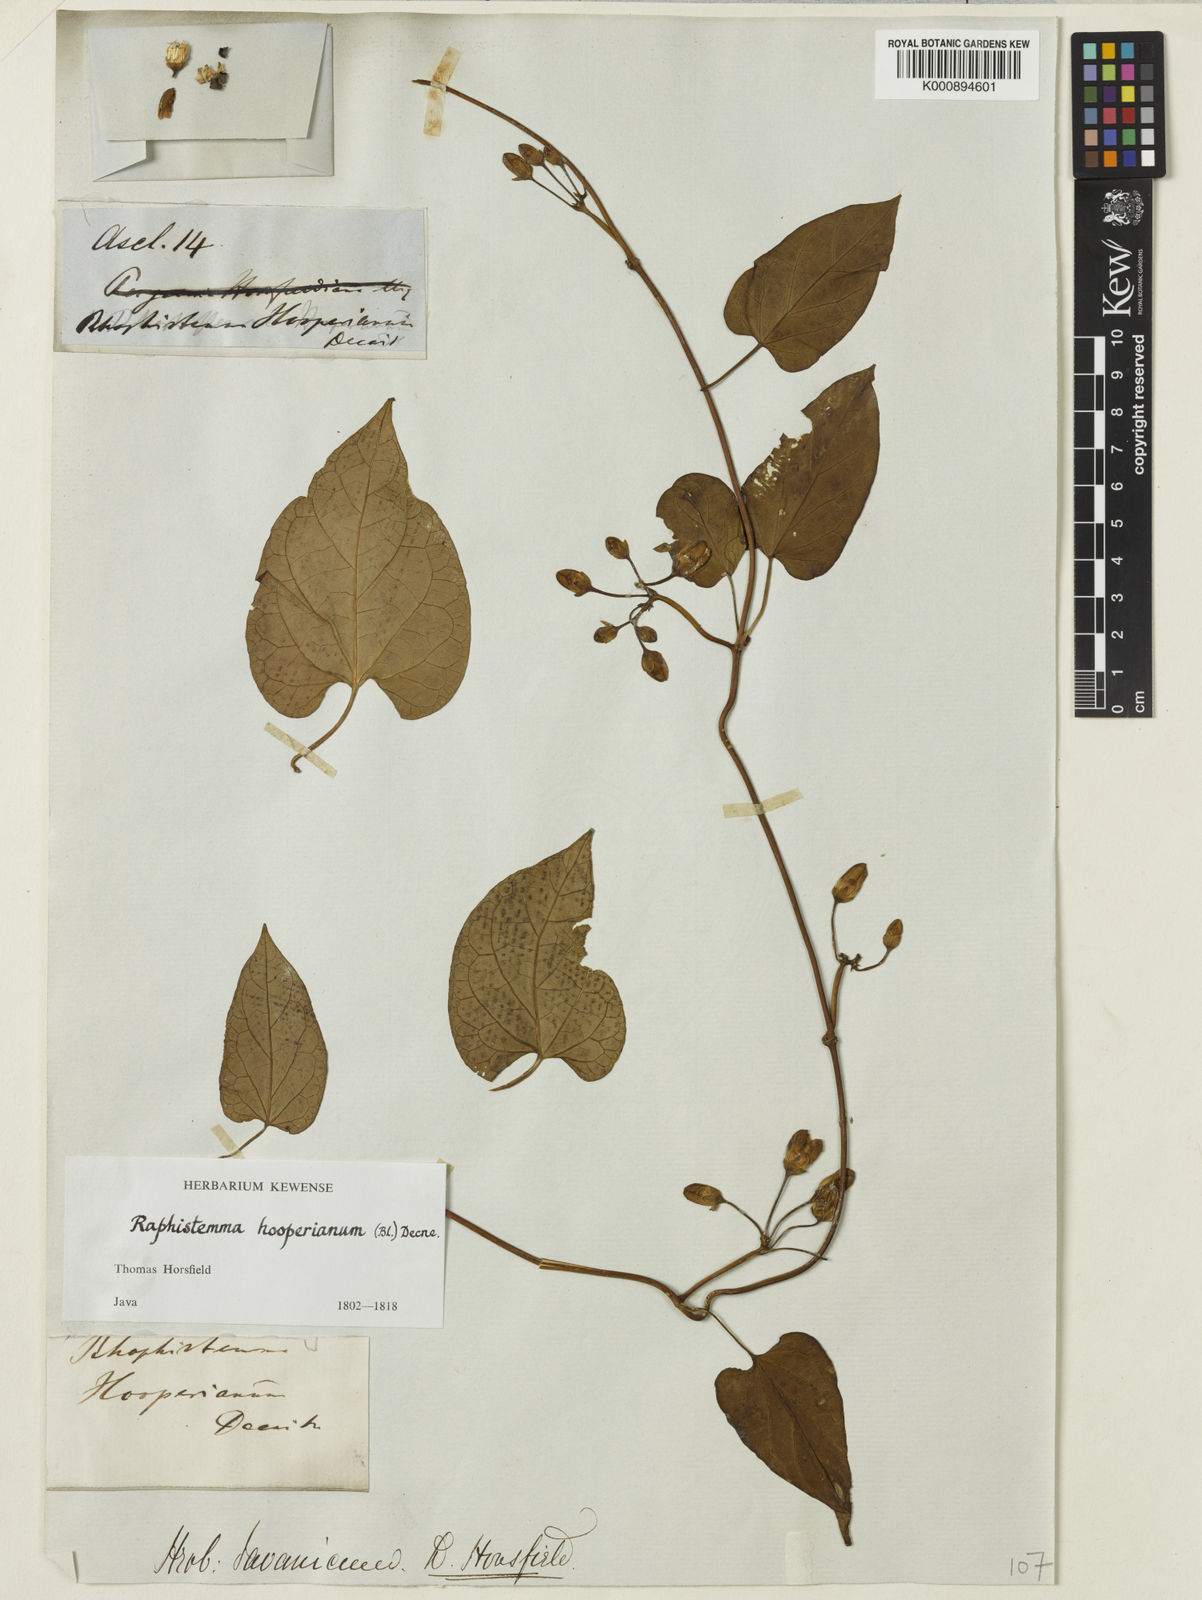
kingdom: Plantae
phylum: Tracheophyta
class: Magnoliopsida
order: Gentianales
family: Apocynaceae
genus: Cynanchum
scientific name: Cynanchum hooperianum
